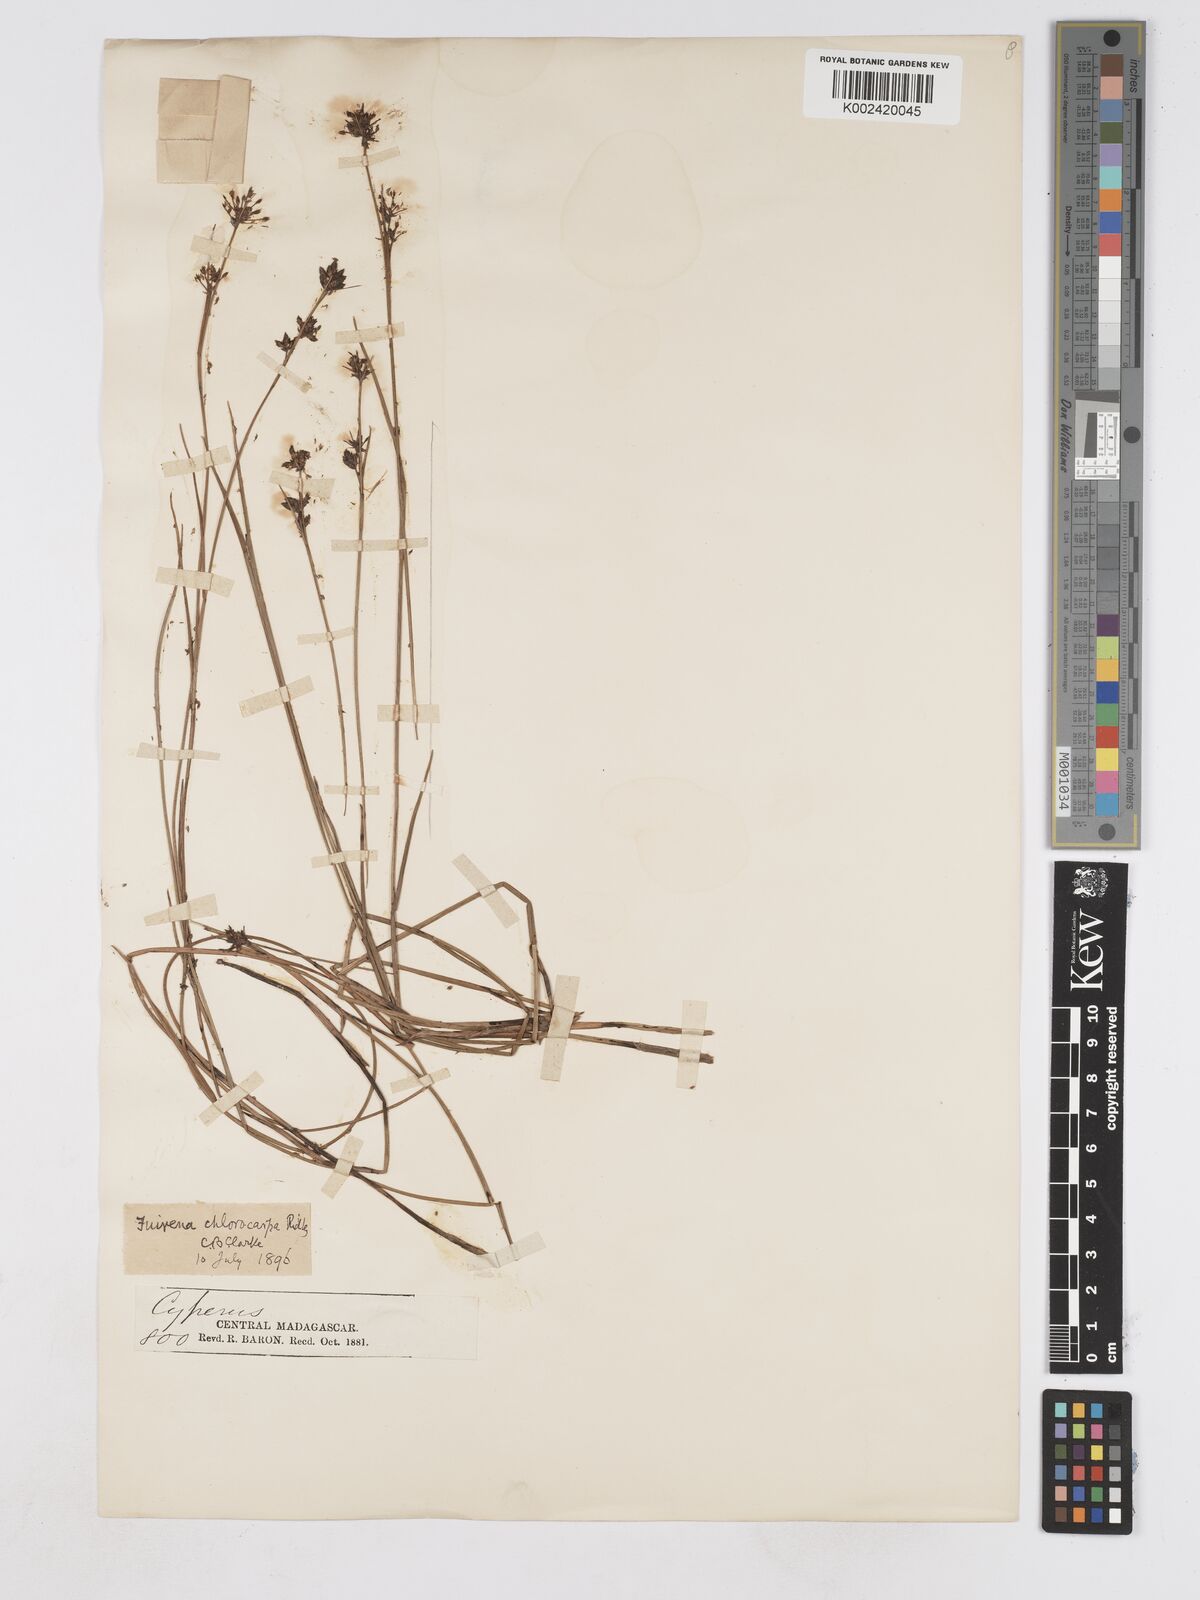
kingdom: Plantae
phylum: Tracheophyta
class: Liliopsida
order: Poales
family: Cyperaceae
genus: Fuirena
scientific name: Fuirena stricta
